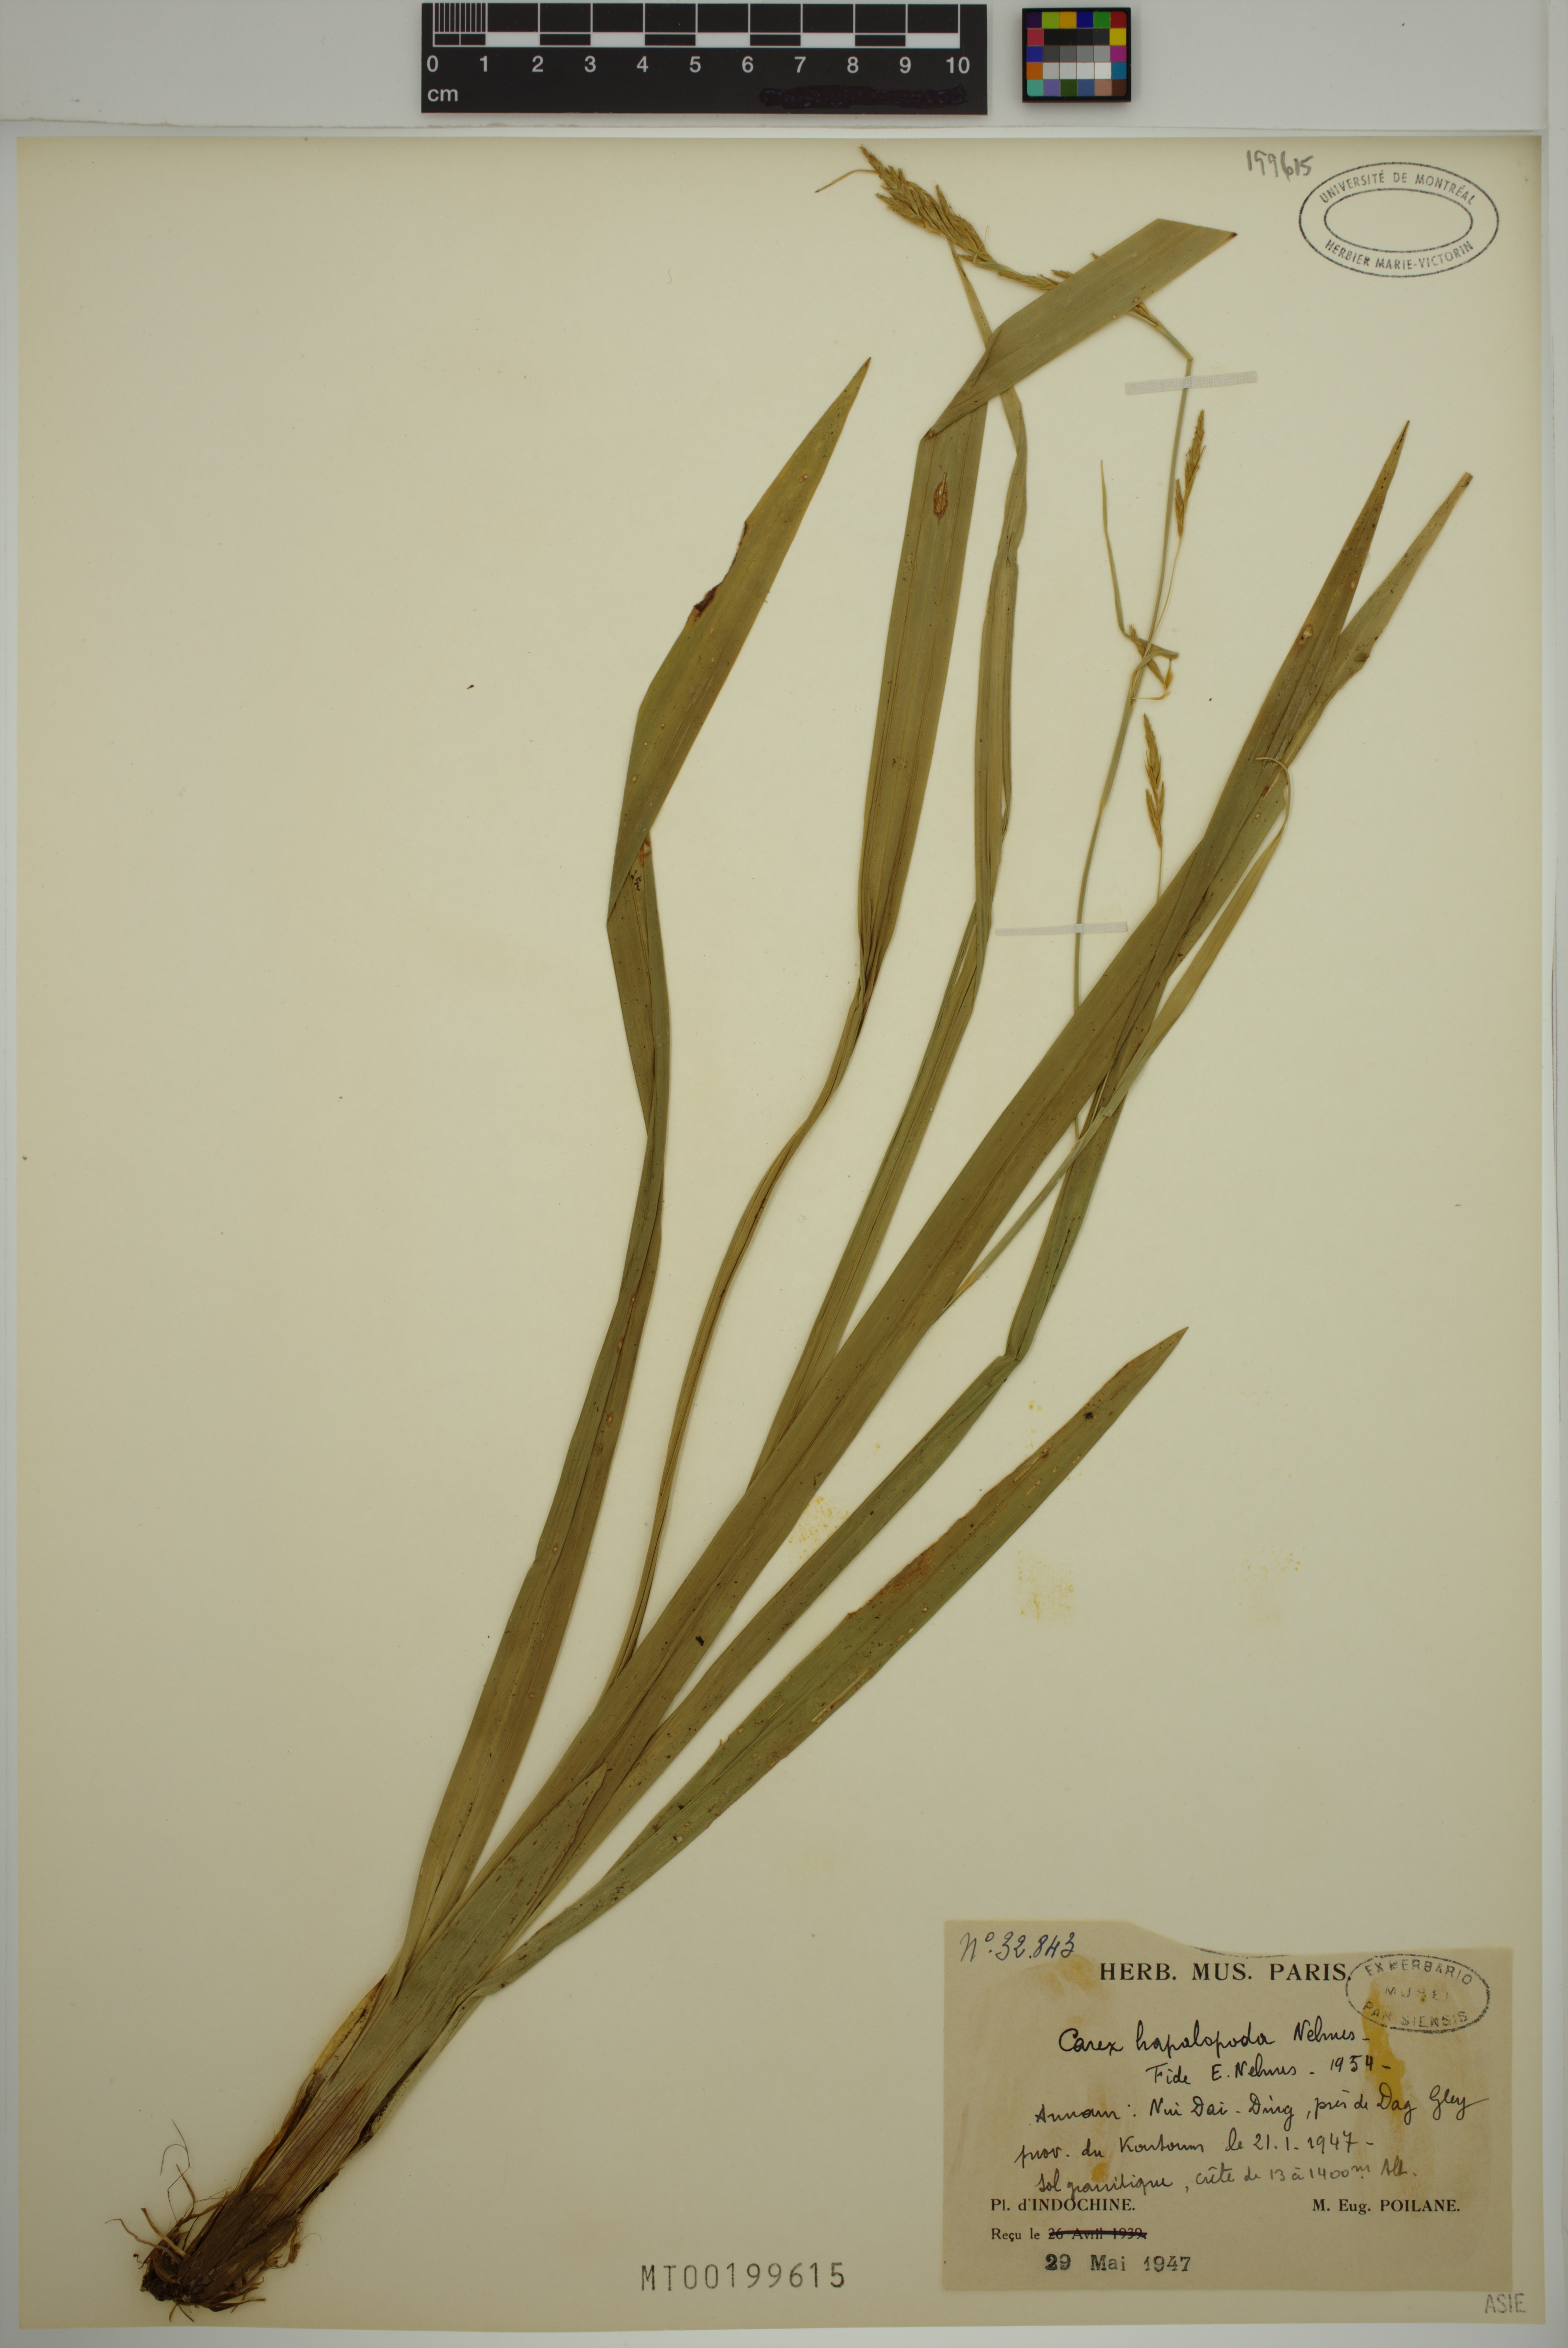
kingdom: Plantae
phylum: Tracheophyta
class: Liliopsida
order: Poales
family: Cyperaceae
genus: Carex
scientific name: Carex
